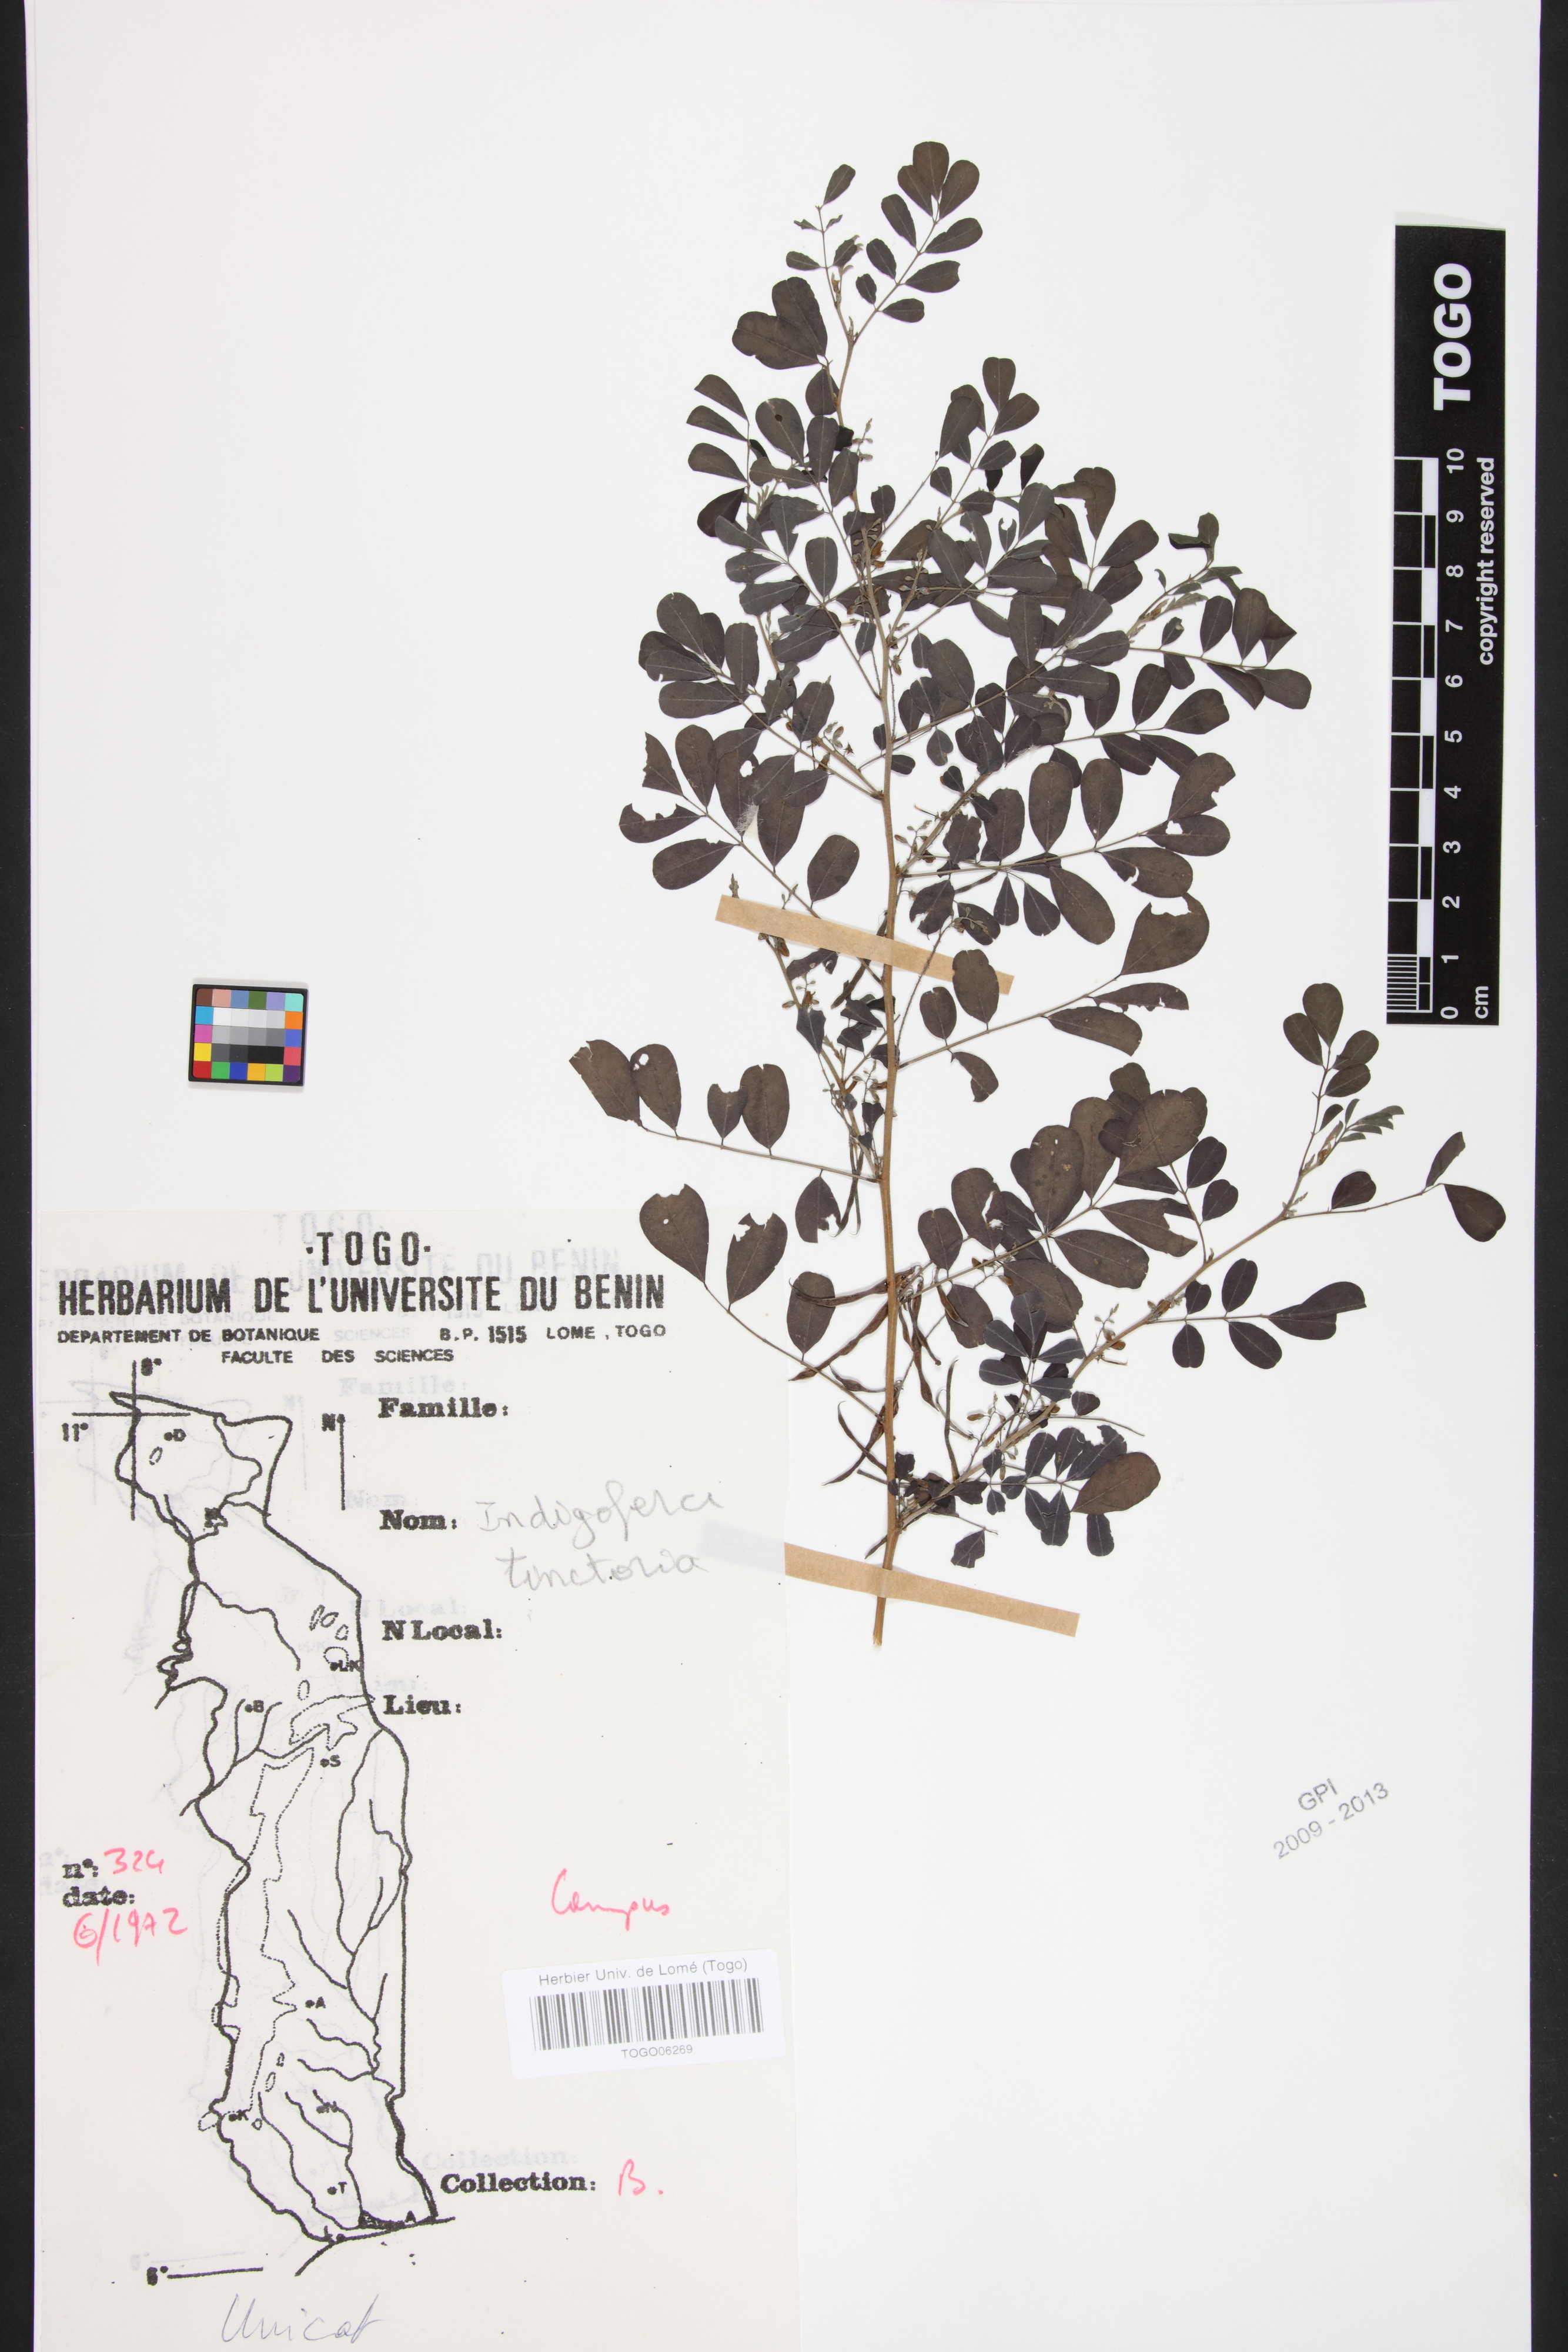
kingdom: Plantae
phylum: Tracheophyta
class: Magnoliopsida
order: Fabales
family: Fabaceae
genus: Indigofera
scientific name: Indigofera tinctoria
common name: True indigo
